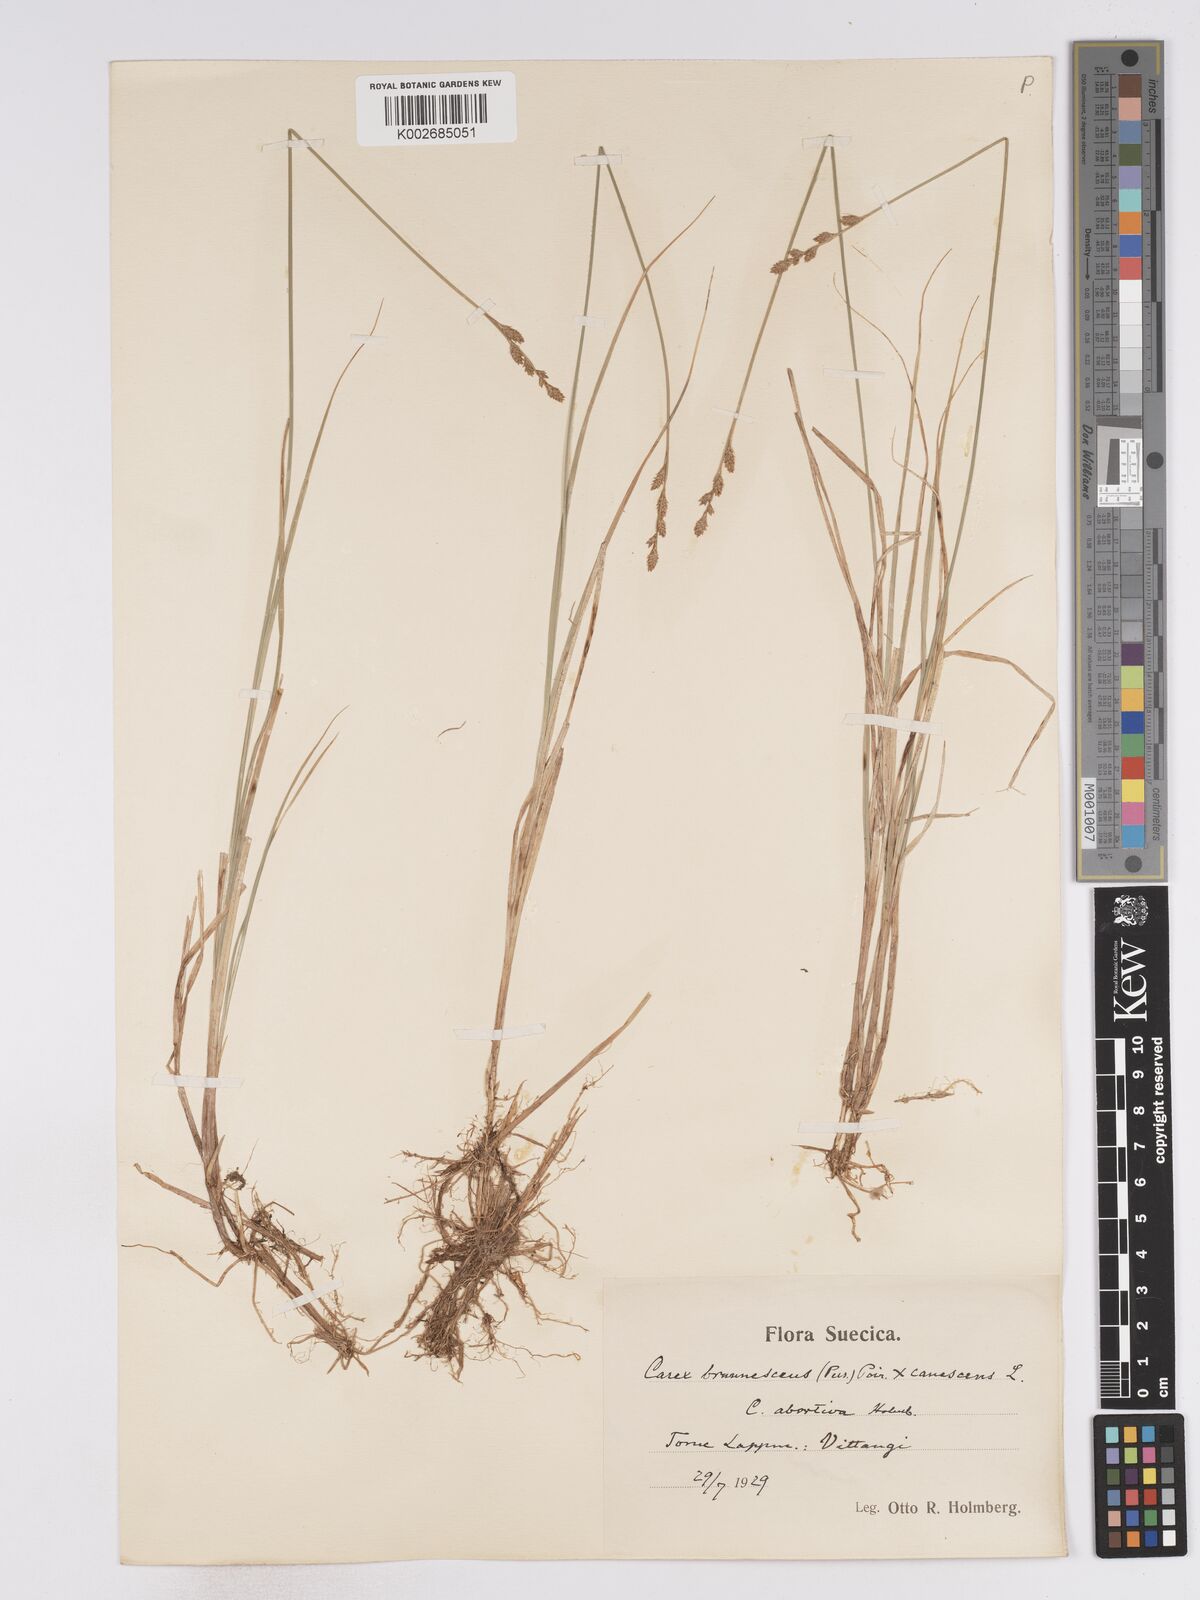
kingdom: Plantae
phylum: Tracheophyta
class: Liliopsida
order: Poales
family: Cyperaceae
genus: Carex
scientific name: Carex brunnescens
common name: Brown sedge
